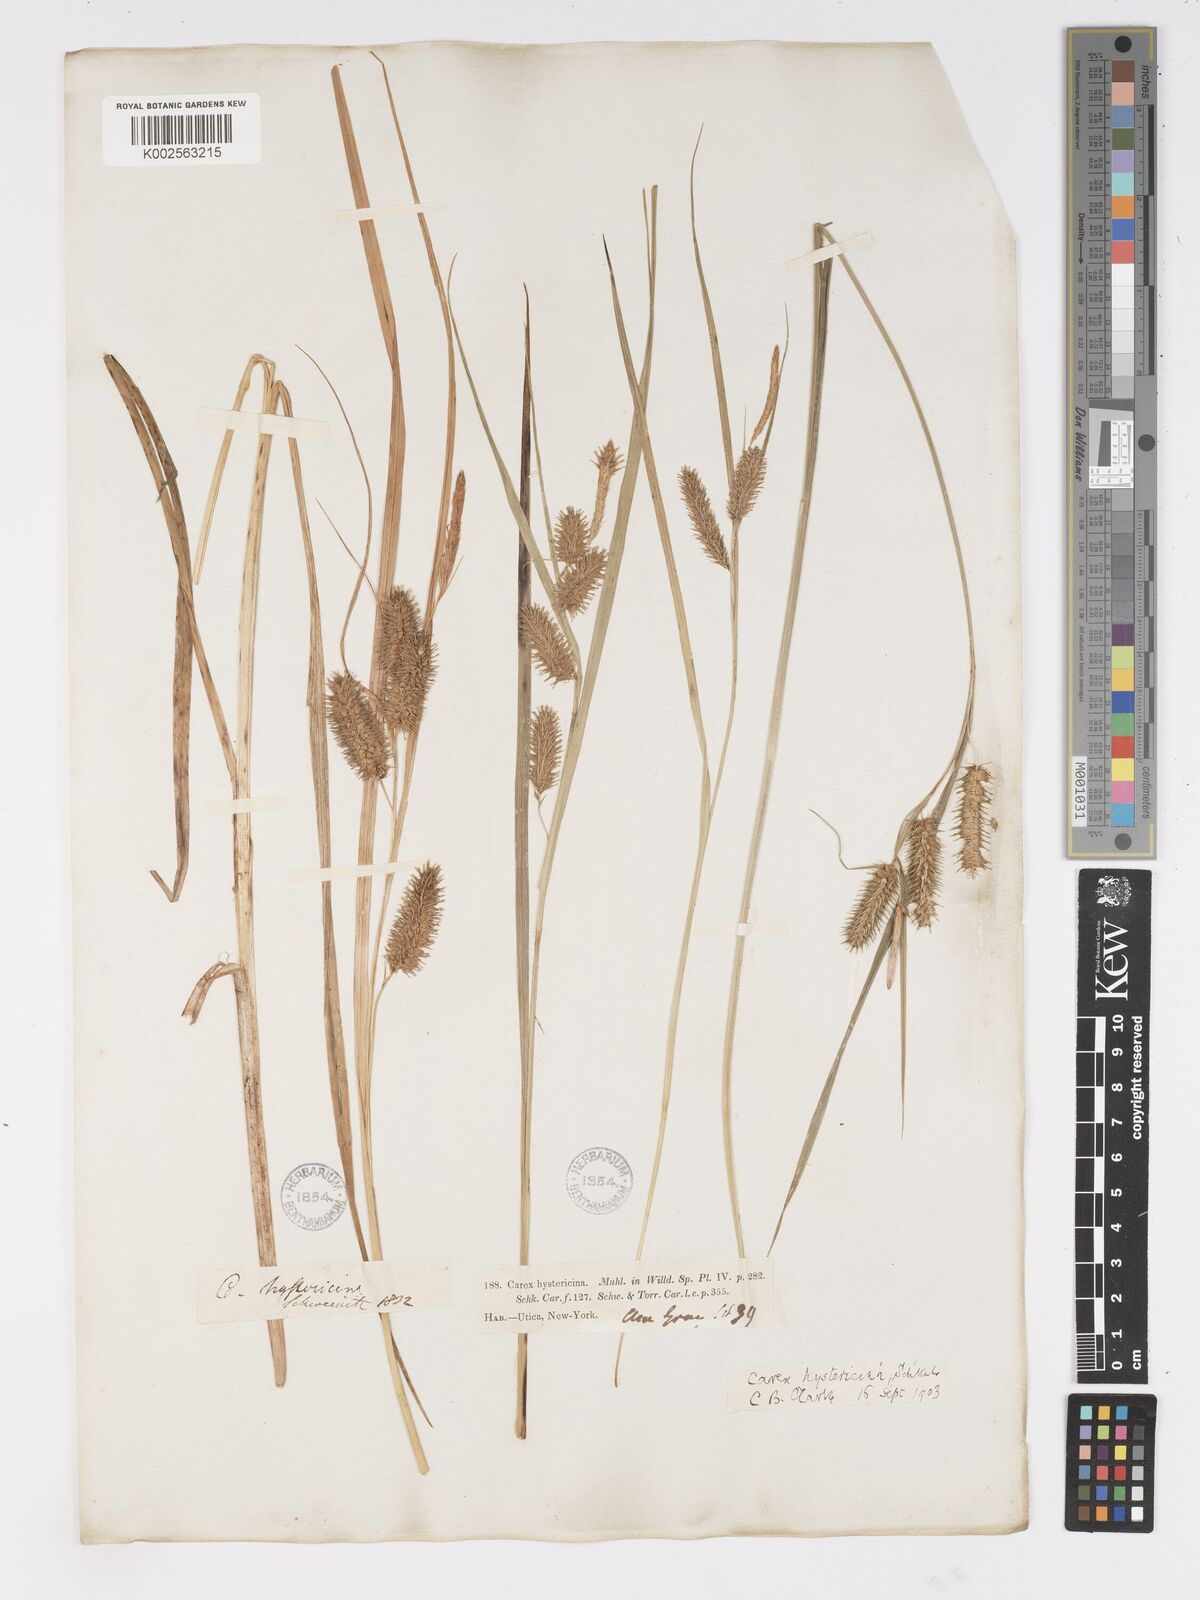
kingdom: Plantae
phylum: Tracheophyta
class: Liliopsida
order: Poales
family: Cyperaceae
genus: Carex
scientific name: Carex hystericina
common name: Bottlebrush sedge
